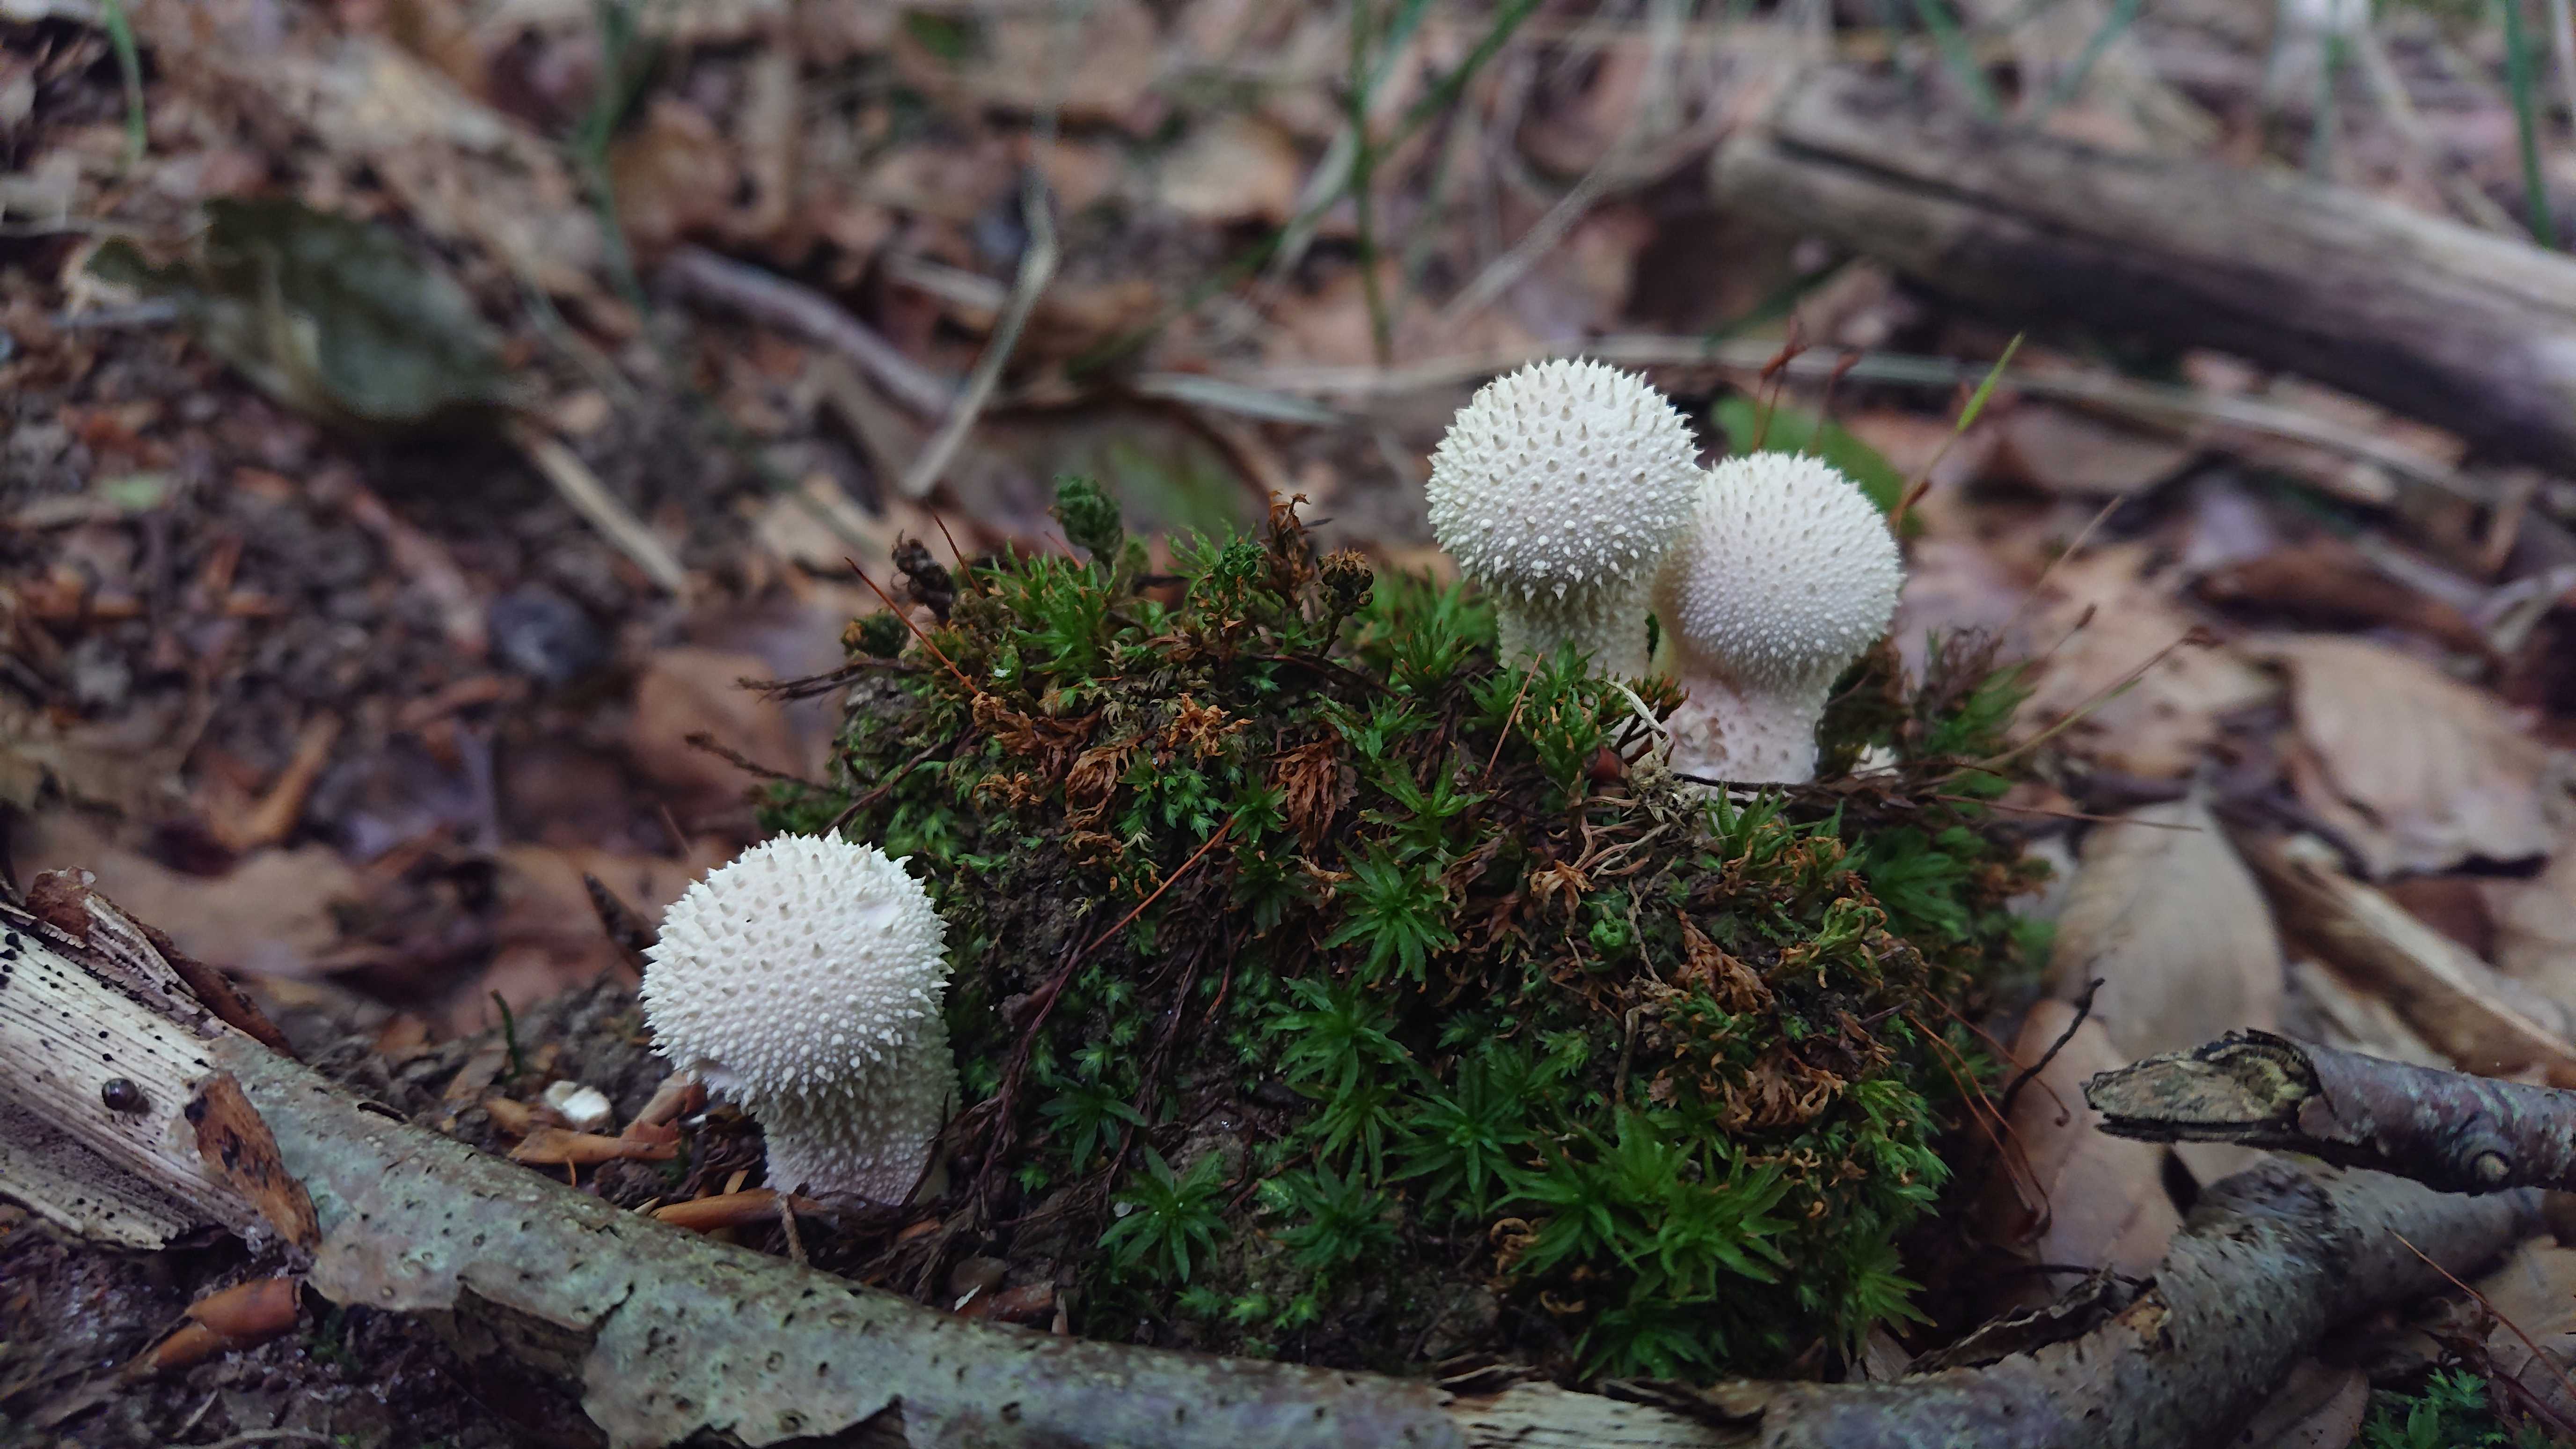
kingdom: Fungi
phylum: Basidiomycota
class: Agaricomycetes
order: Agaricales
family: Lycoperdaceae
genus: Lycoperdon
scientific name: Lycoperdon perlatum
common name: krystal-støvbold
